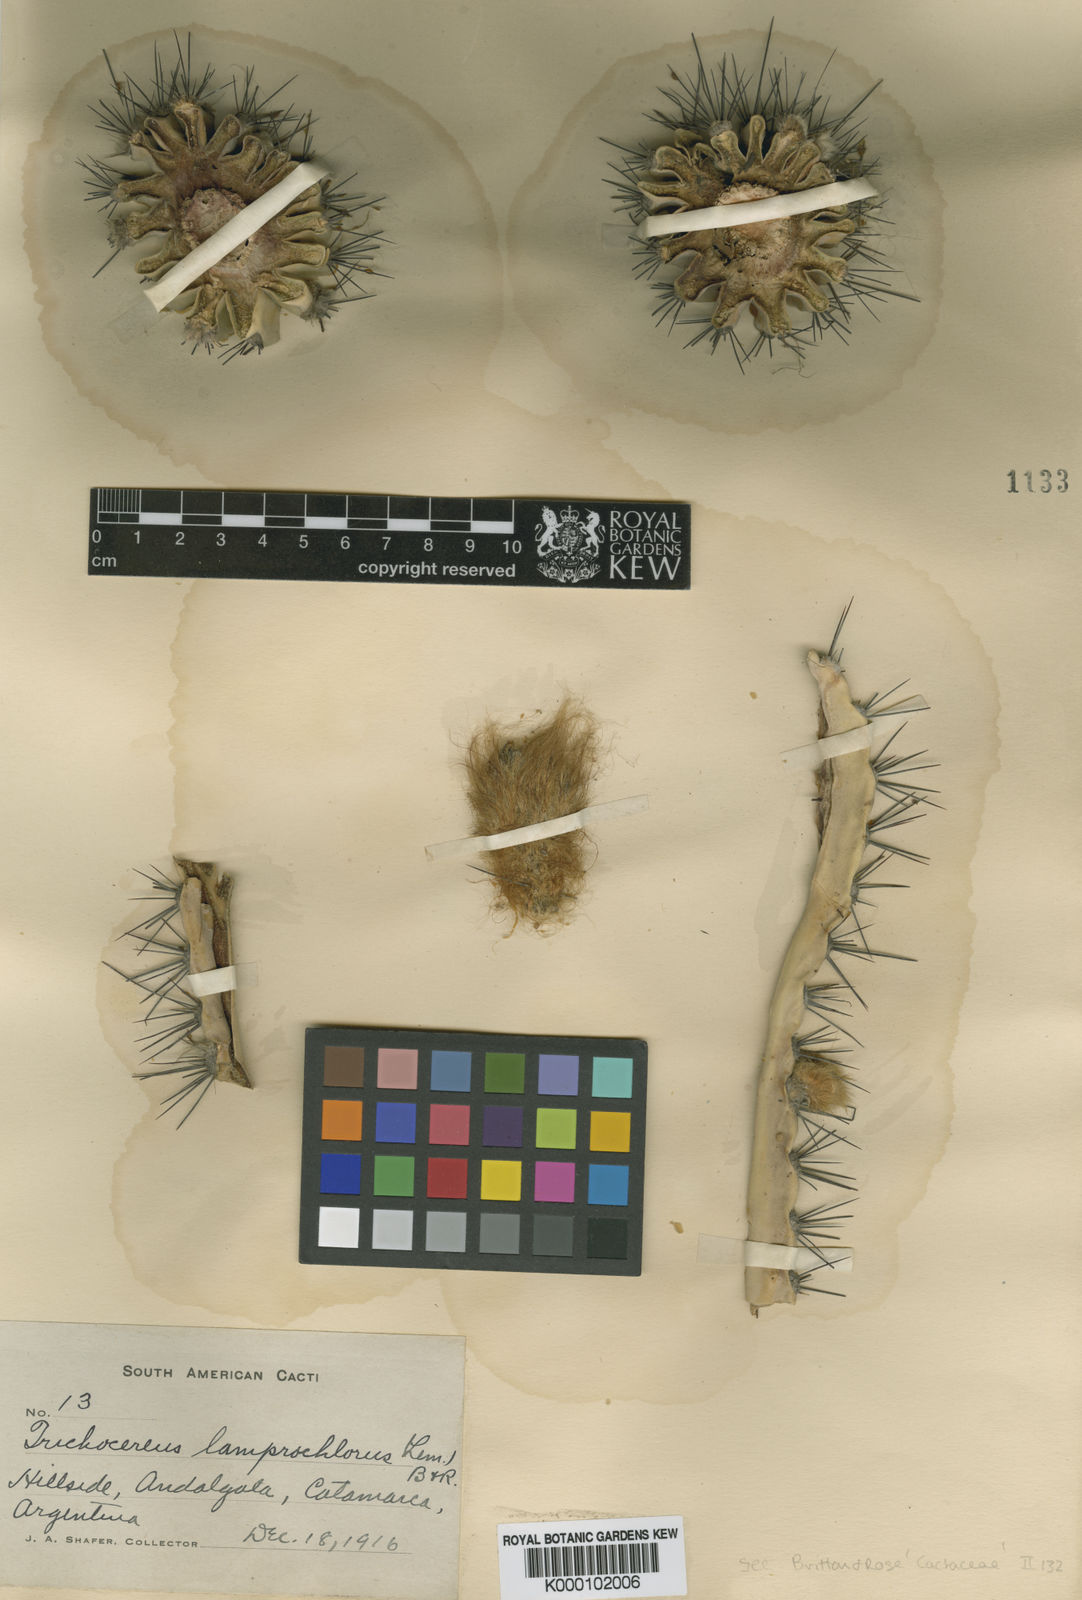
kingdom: Plantae
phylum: Tracheophyta
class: Magnoliopsida
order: Caryophyllales
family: Cactaceae
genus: Echinopsis
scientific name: Echinopsis
